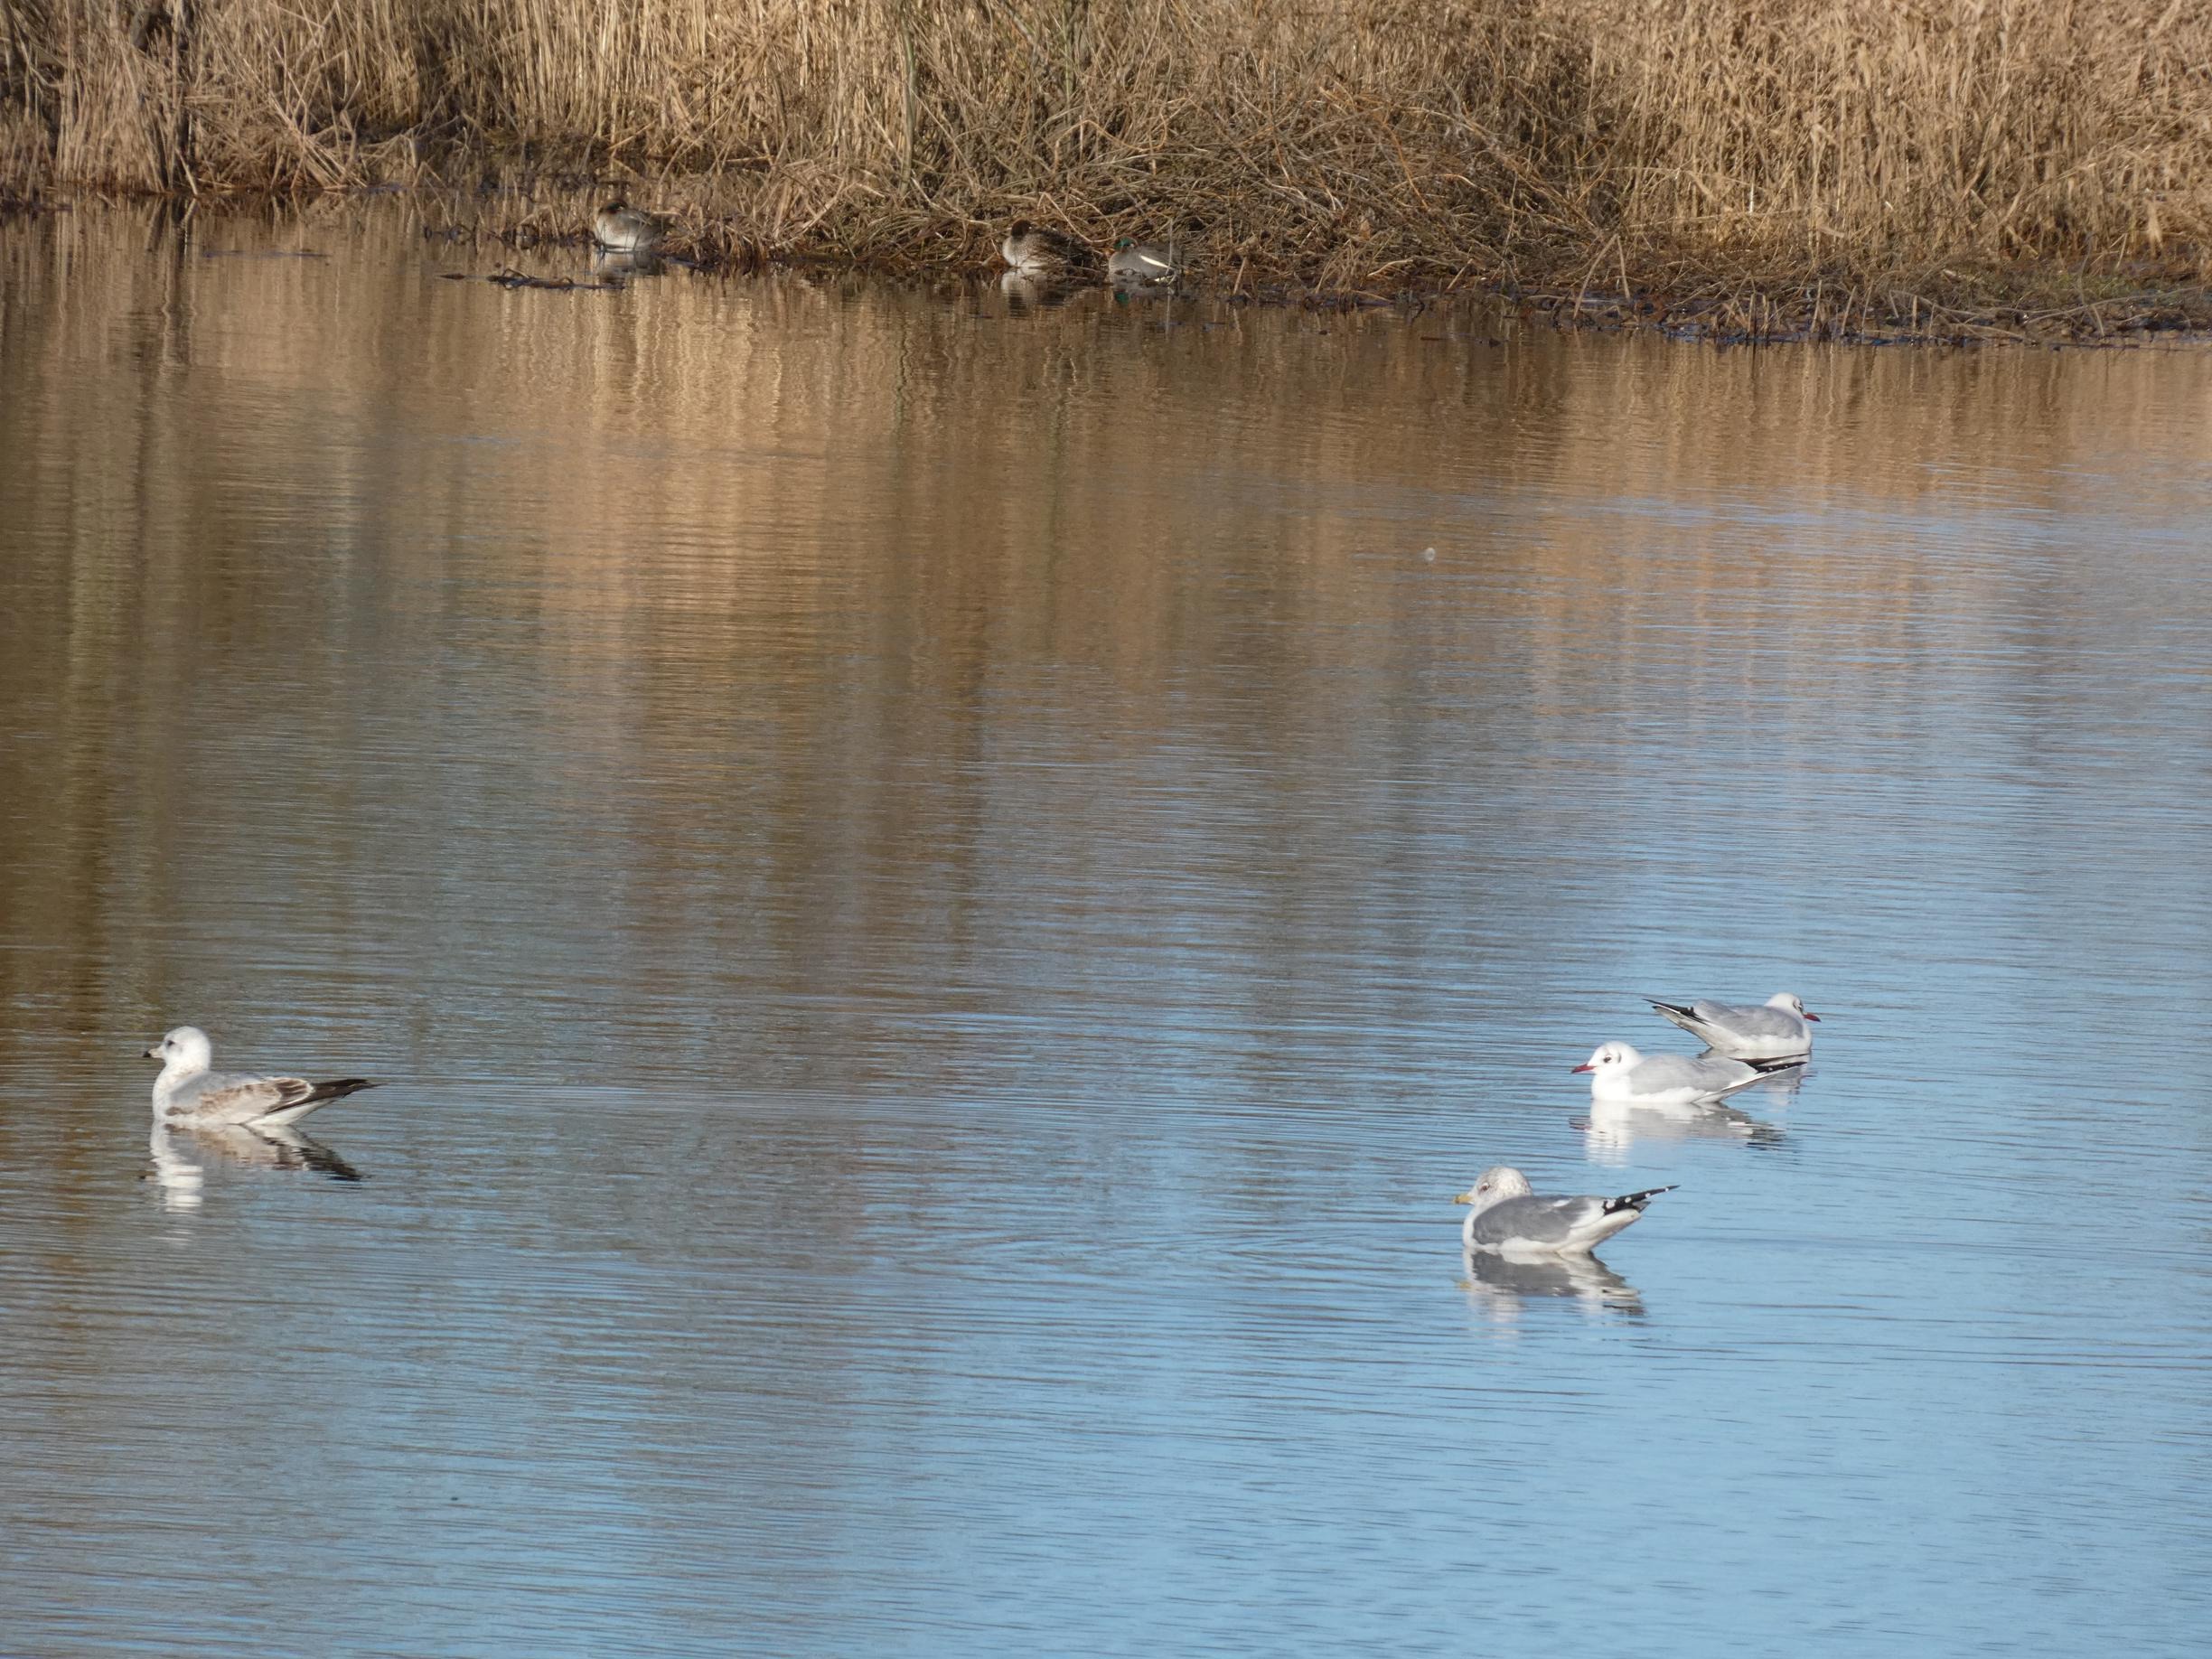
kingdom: Animalia
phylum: Chordata
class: Aves
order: Charadriiformes
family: Laridae
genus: Chroicocephalus
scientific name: Chroicocephalus ridibundus
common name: Hættemåge
